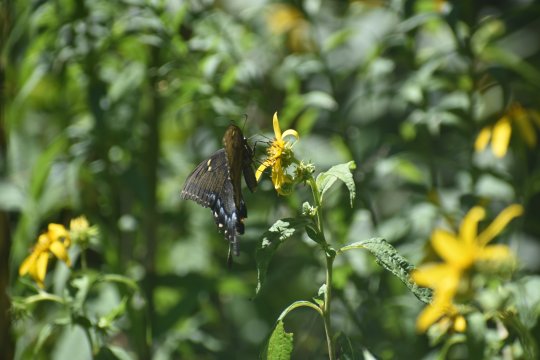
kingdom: Animalia
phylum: Arthropoda
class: Insecta
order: Lepidoptera
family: Papilionidae
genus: Pterourus
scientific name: Pterourus glaucus
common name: Eastern Tiger Swallowtail
